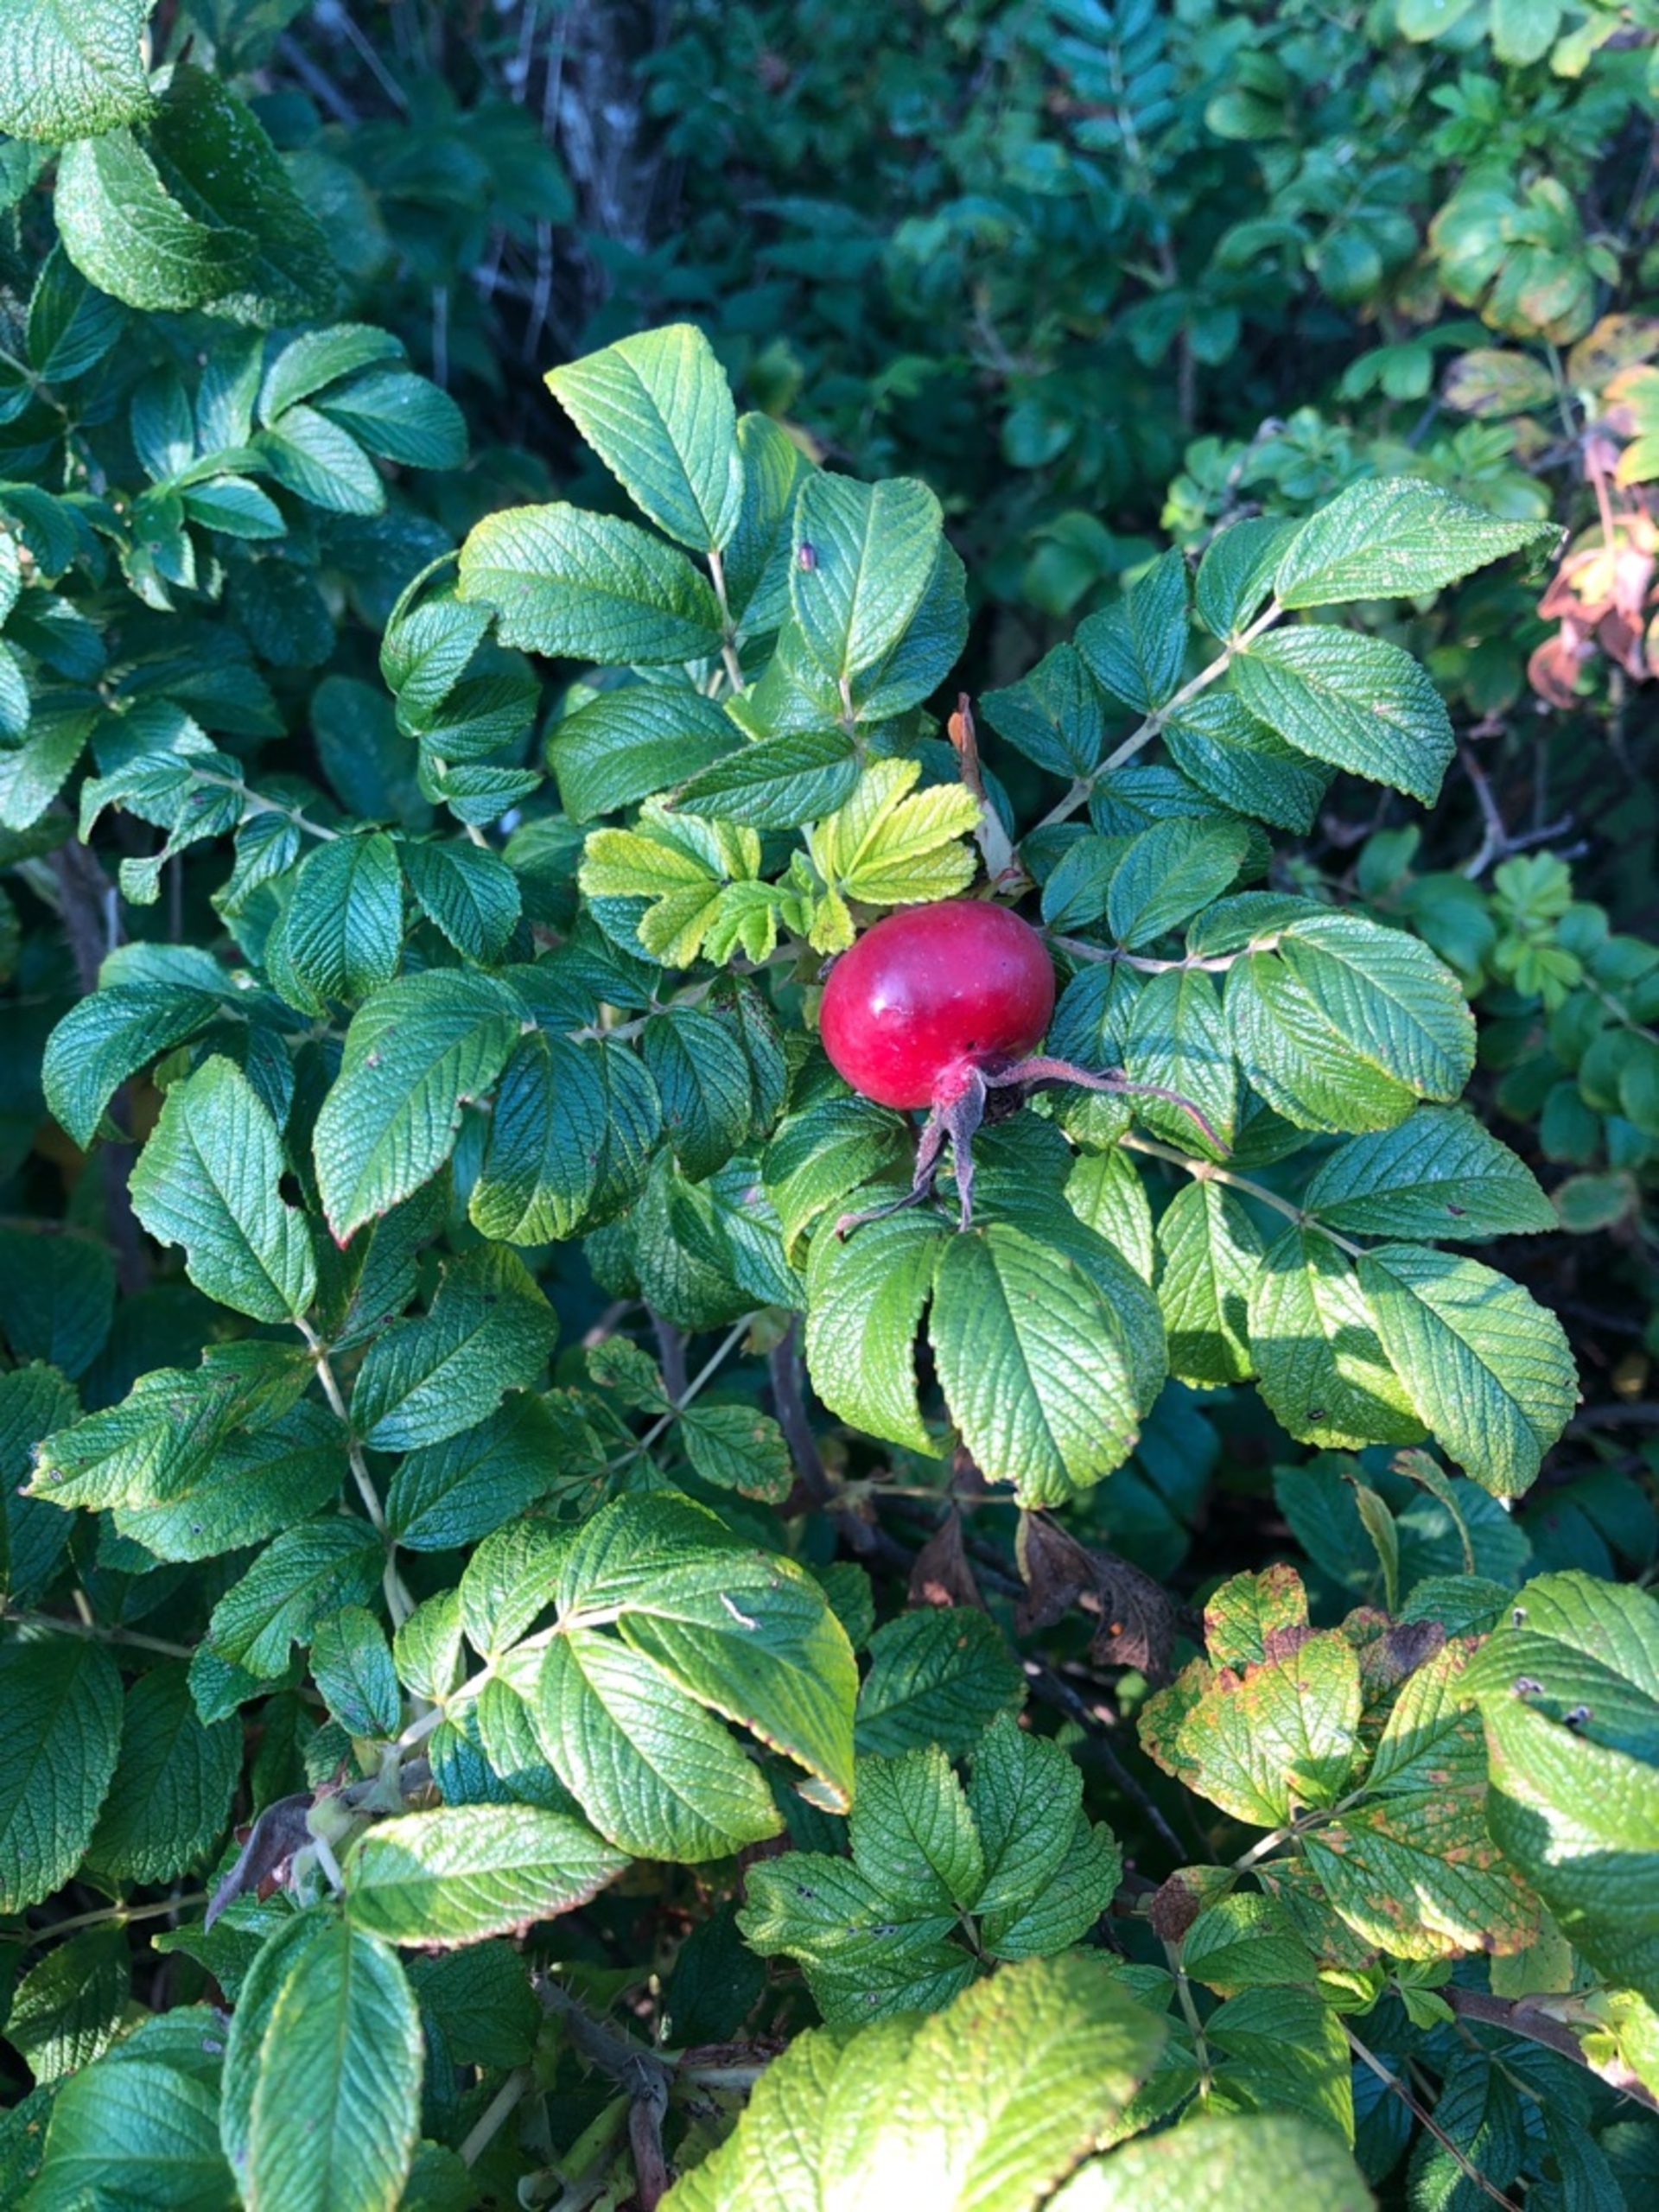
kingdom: Plantae
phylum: Tracheophyta
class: Magnoliopsida
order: Rosales
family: Rosaceae
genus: Rosa
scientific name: Rosa rugosa
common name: Rynket rose
